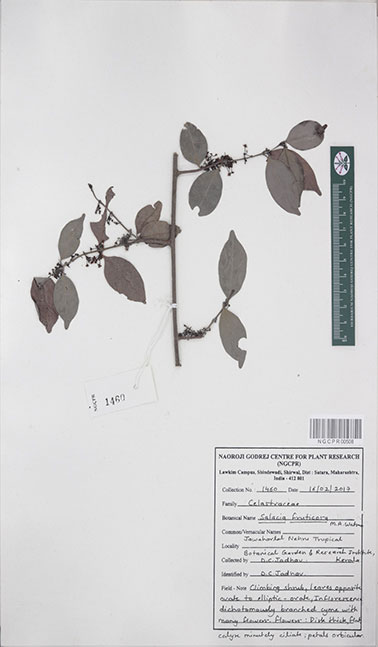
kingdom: Plantae
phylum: Tracheophyta
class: Magnoliopsida
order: Celastrales
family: Celastraceae
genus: Salacia
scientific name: Salacia fruticosa
